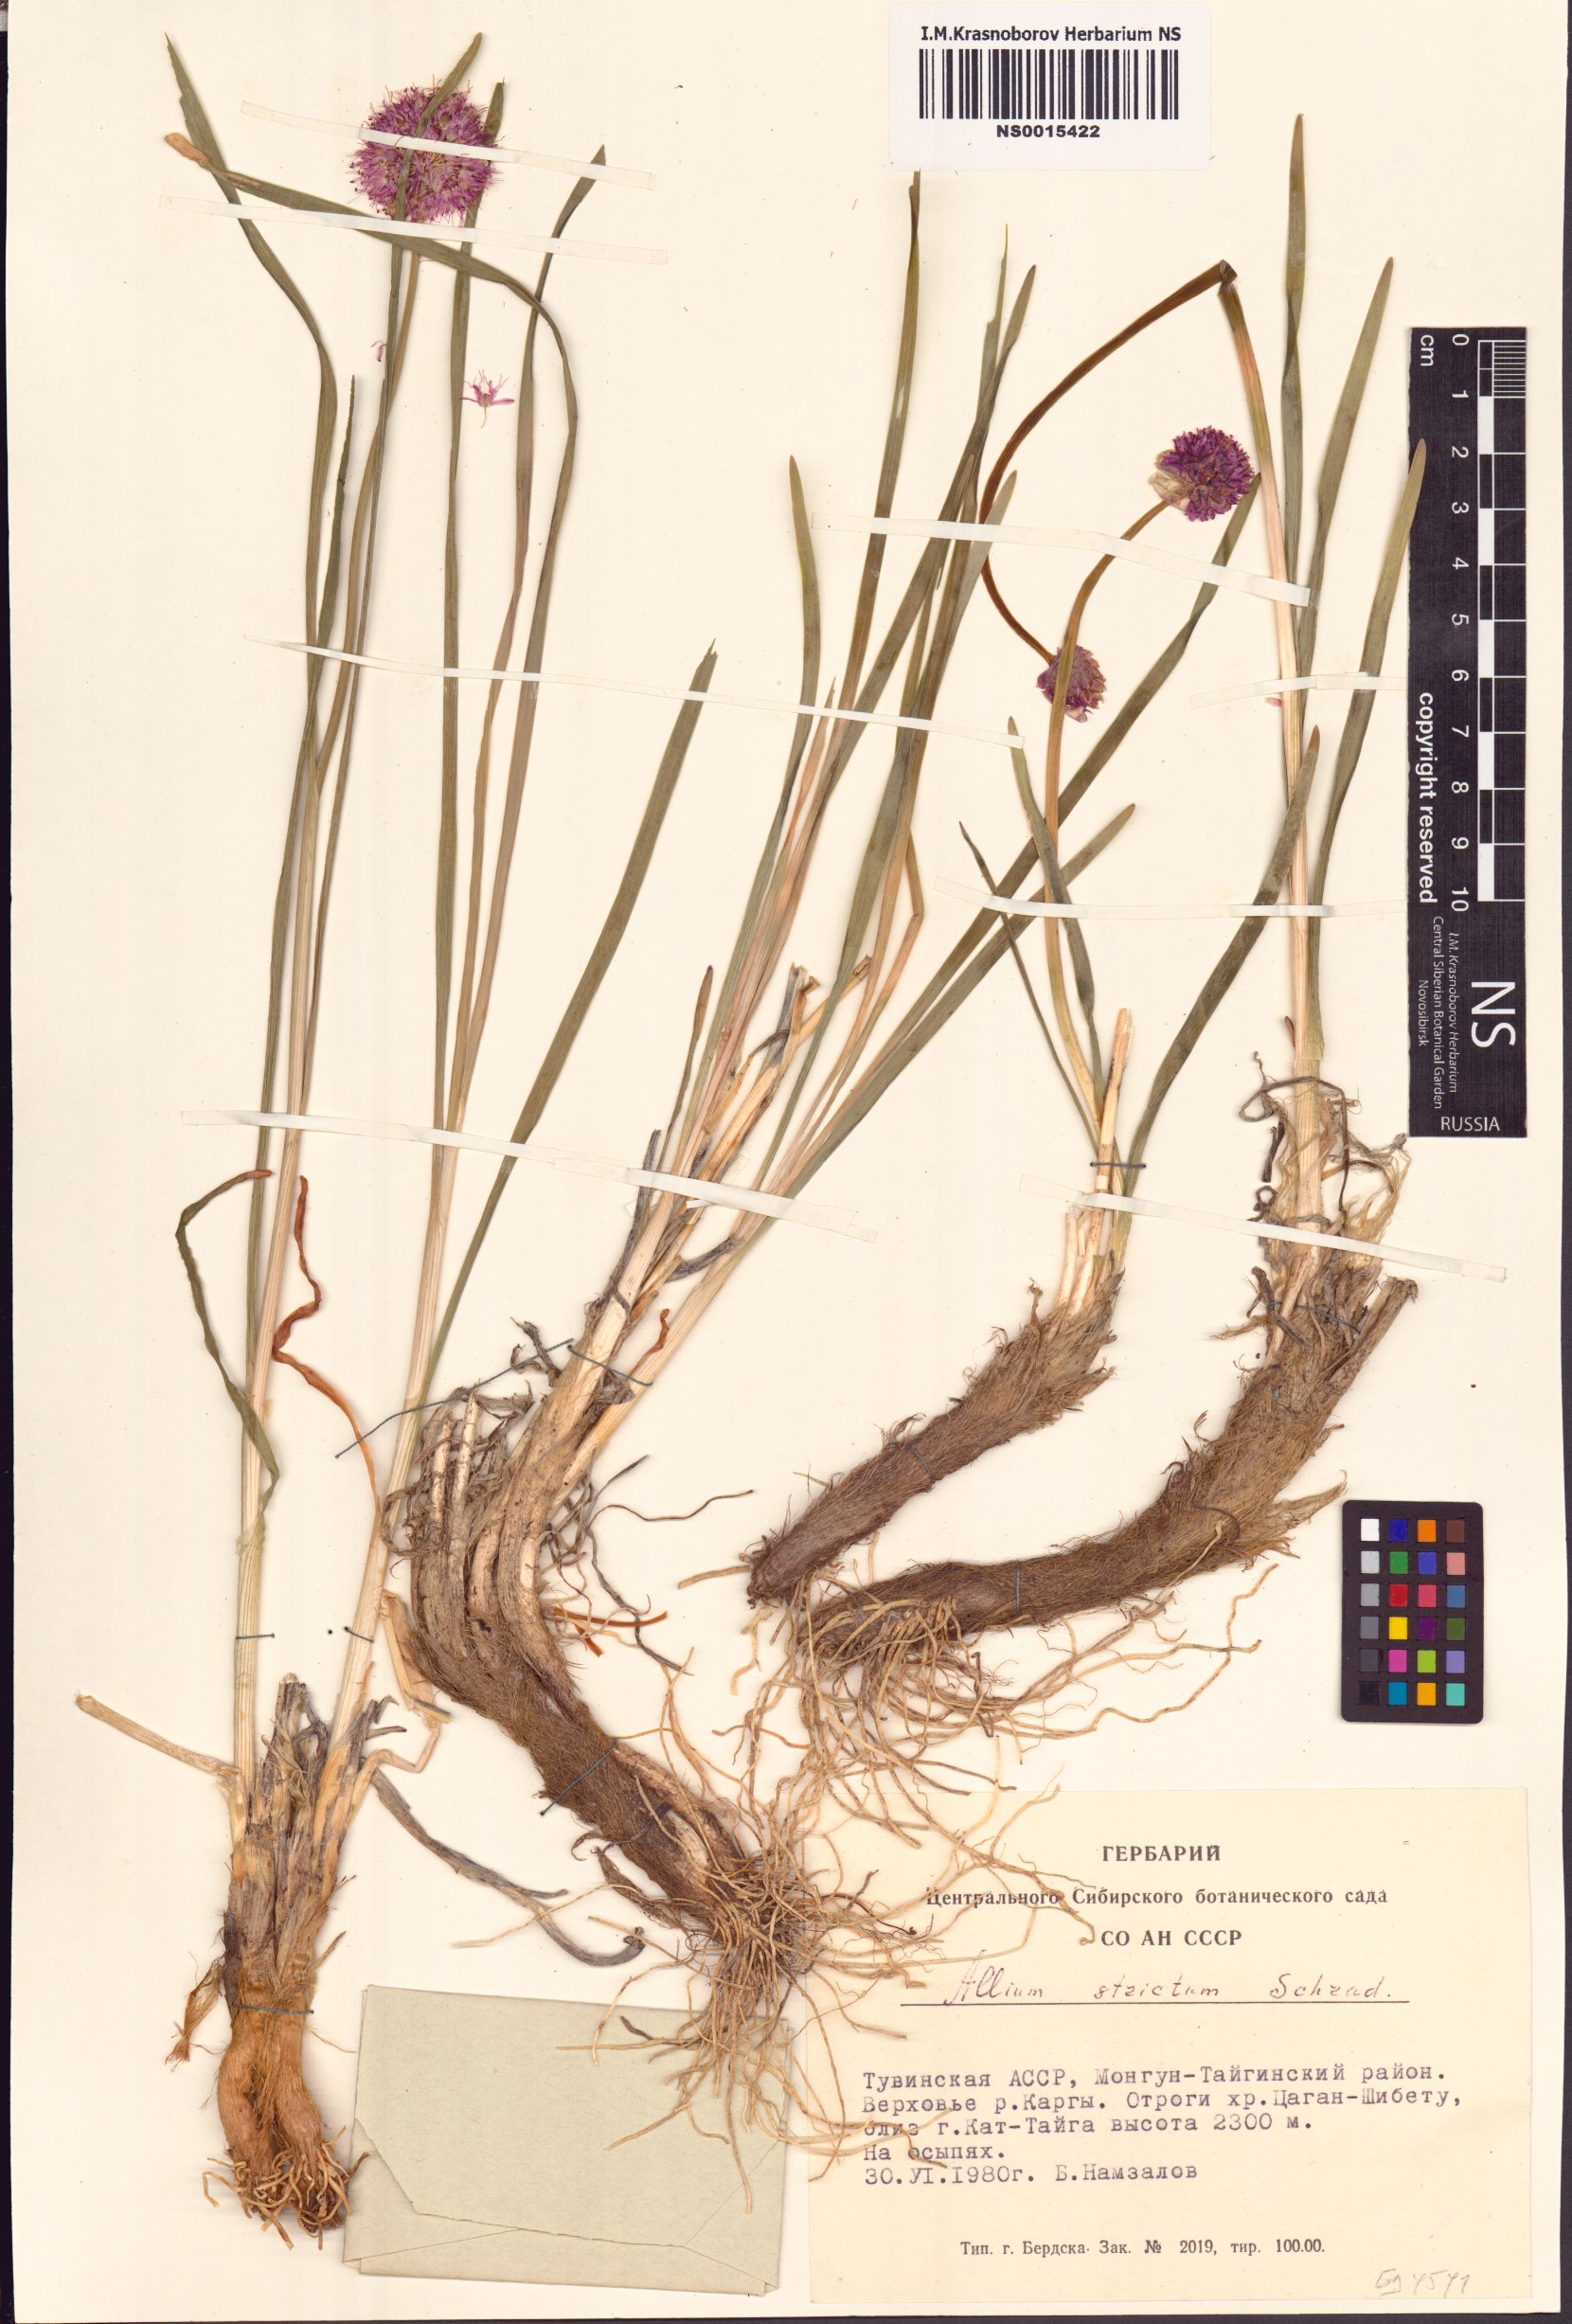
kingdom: Plantae
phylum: Tracheophyta
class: Liliopsida
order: Asparagales
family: Amaryllidaceae
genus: Allium
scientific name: Allium strictum
